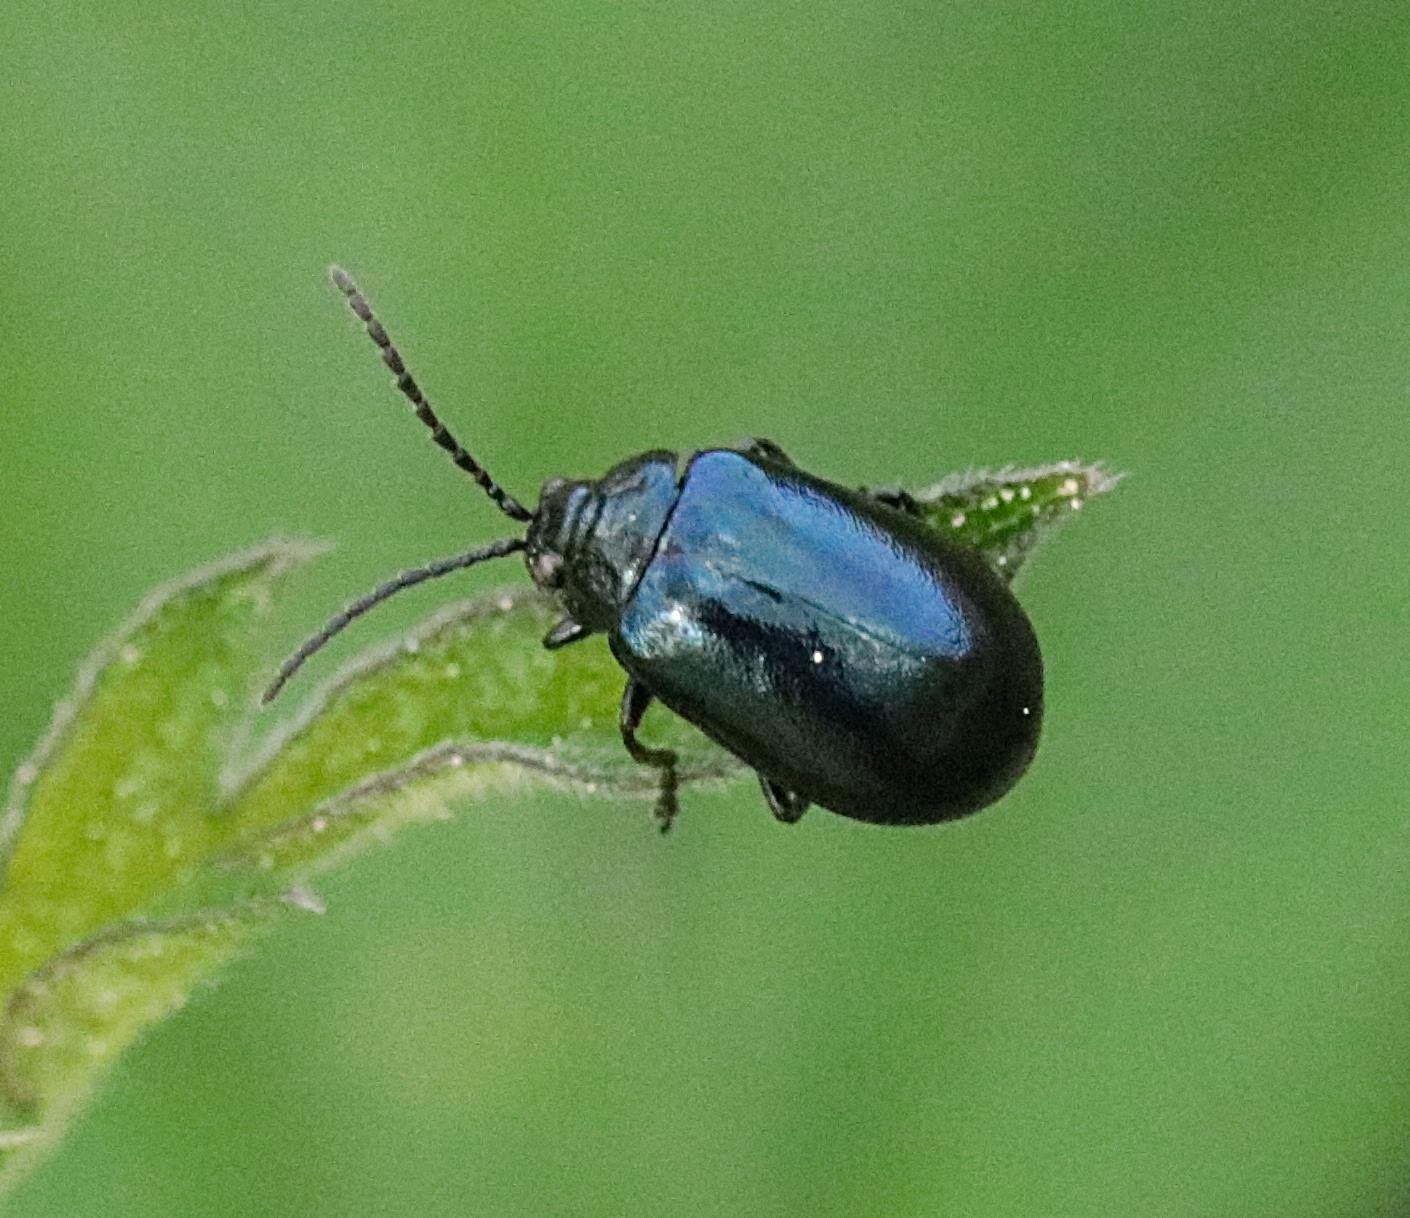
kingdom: Animalia
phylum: Arthropoda
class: Insecta
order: Coleoptera
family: Chrysomelidae
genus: Agelastica
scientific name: Agelastica alni
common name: Ellebladbille
